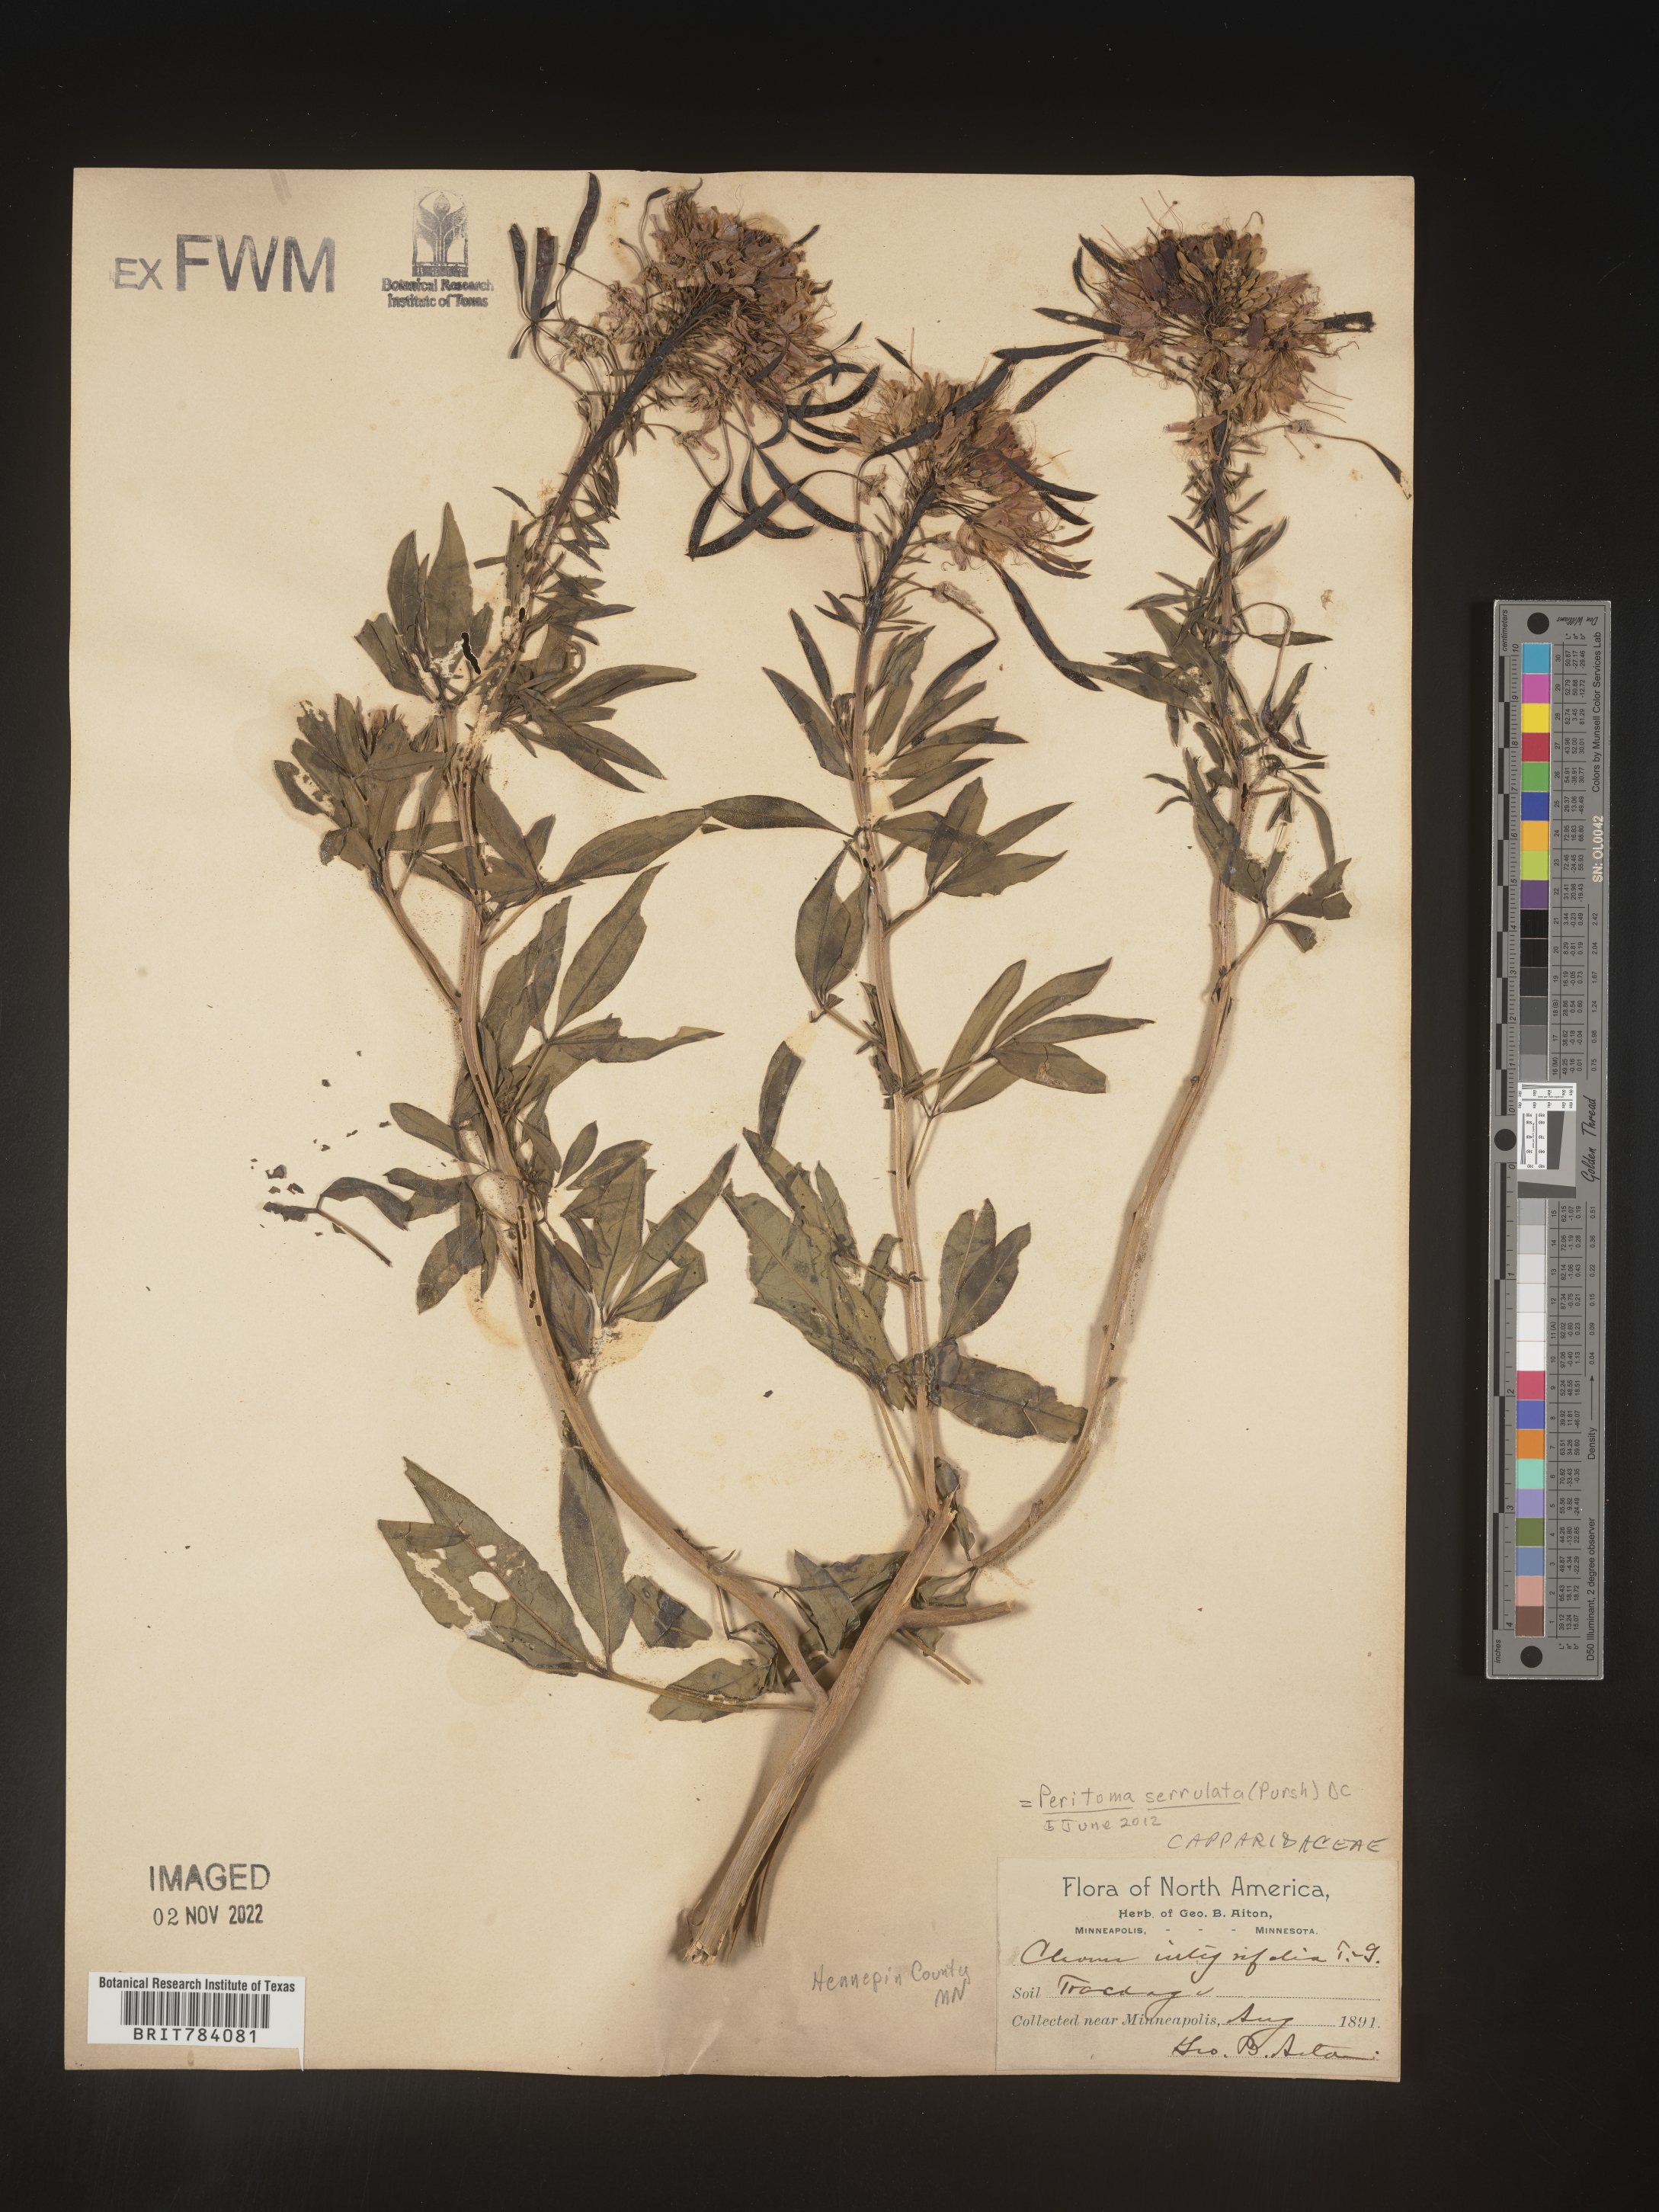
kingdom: Plantae
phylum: Tracheophyta
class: Magnoliopsida
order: Brassicales
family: Cleomaceae
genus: Cleomella
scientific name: Cleomella serrulata
